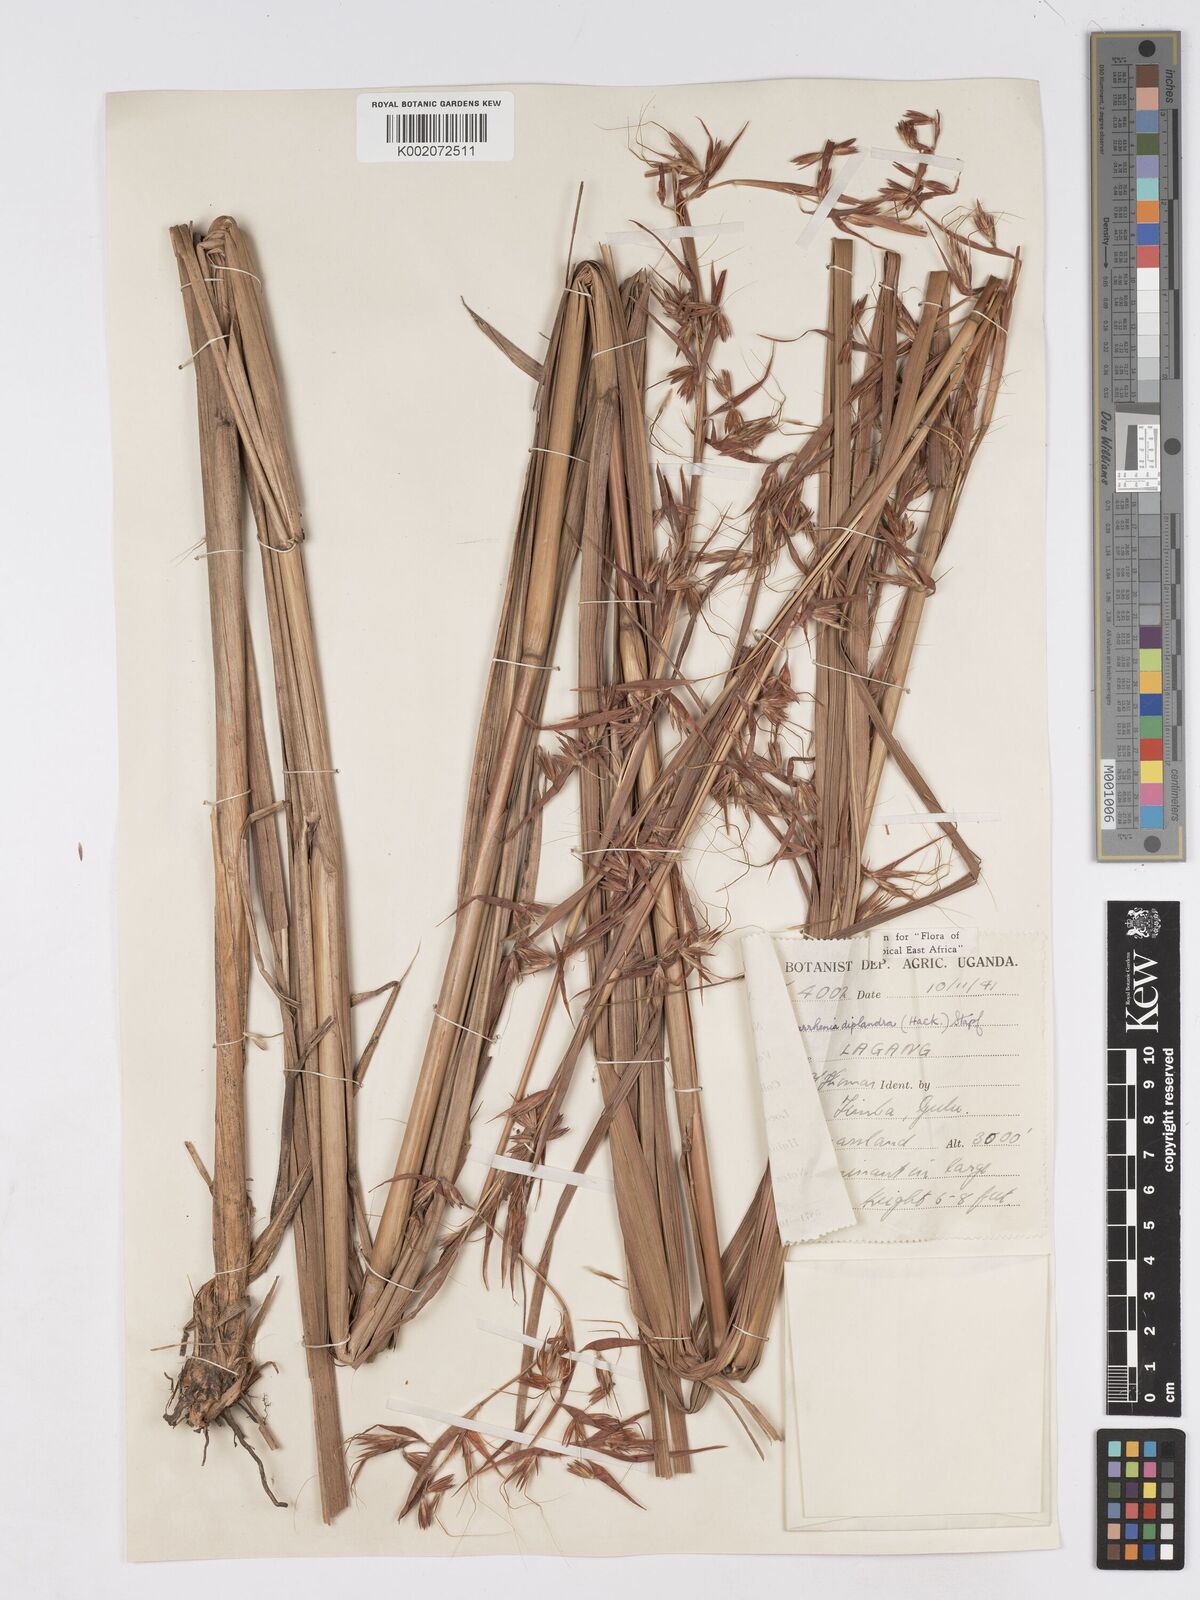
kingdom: Plantae
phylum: Tracheophyta
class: Liliopsida
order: Poales
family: Poaceae
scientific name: Poaceae
